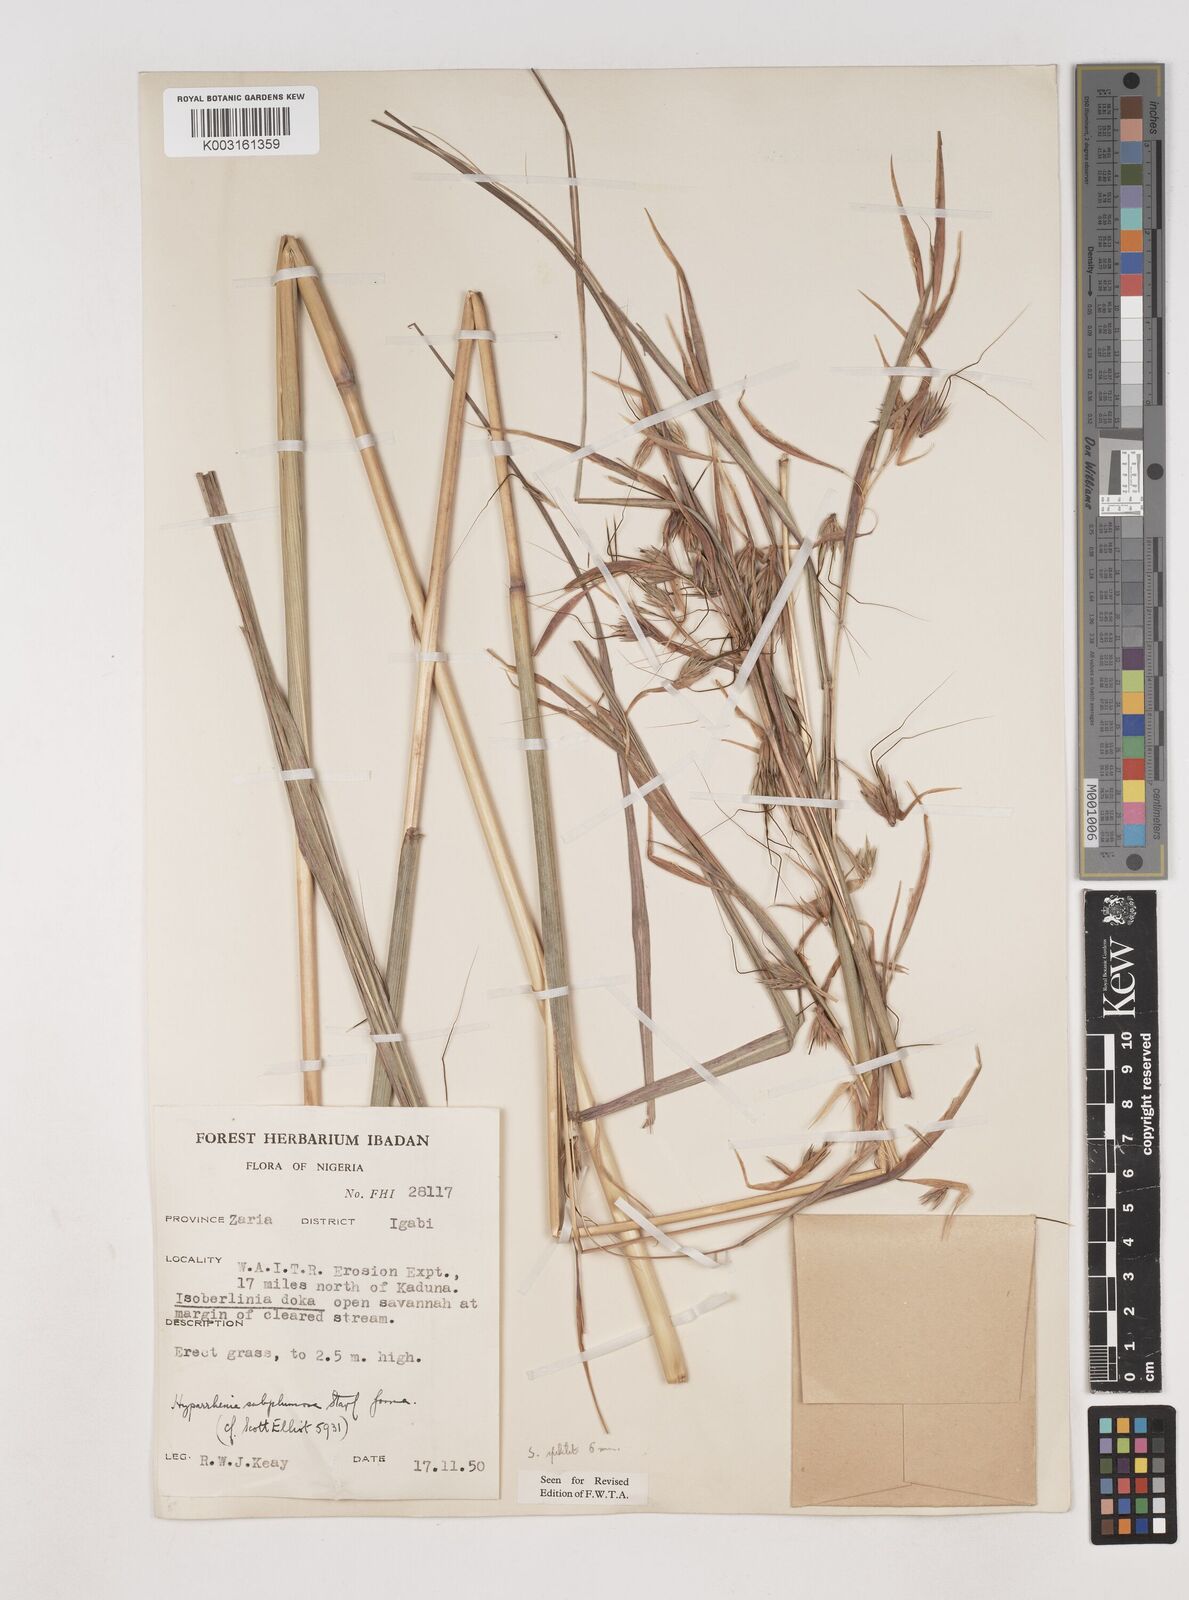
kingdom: Plantae
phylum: Tracheophyta
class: Liliopsida
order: Poales
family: Poaceae
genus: Hyparrhenia
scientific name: Hyparrhenia subplumosa
